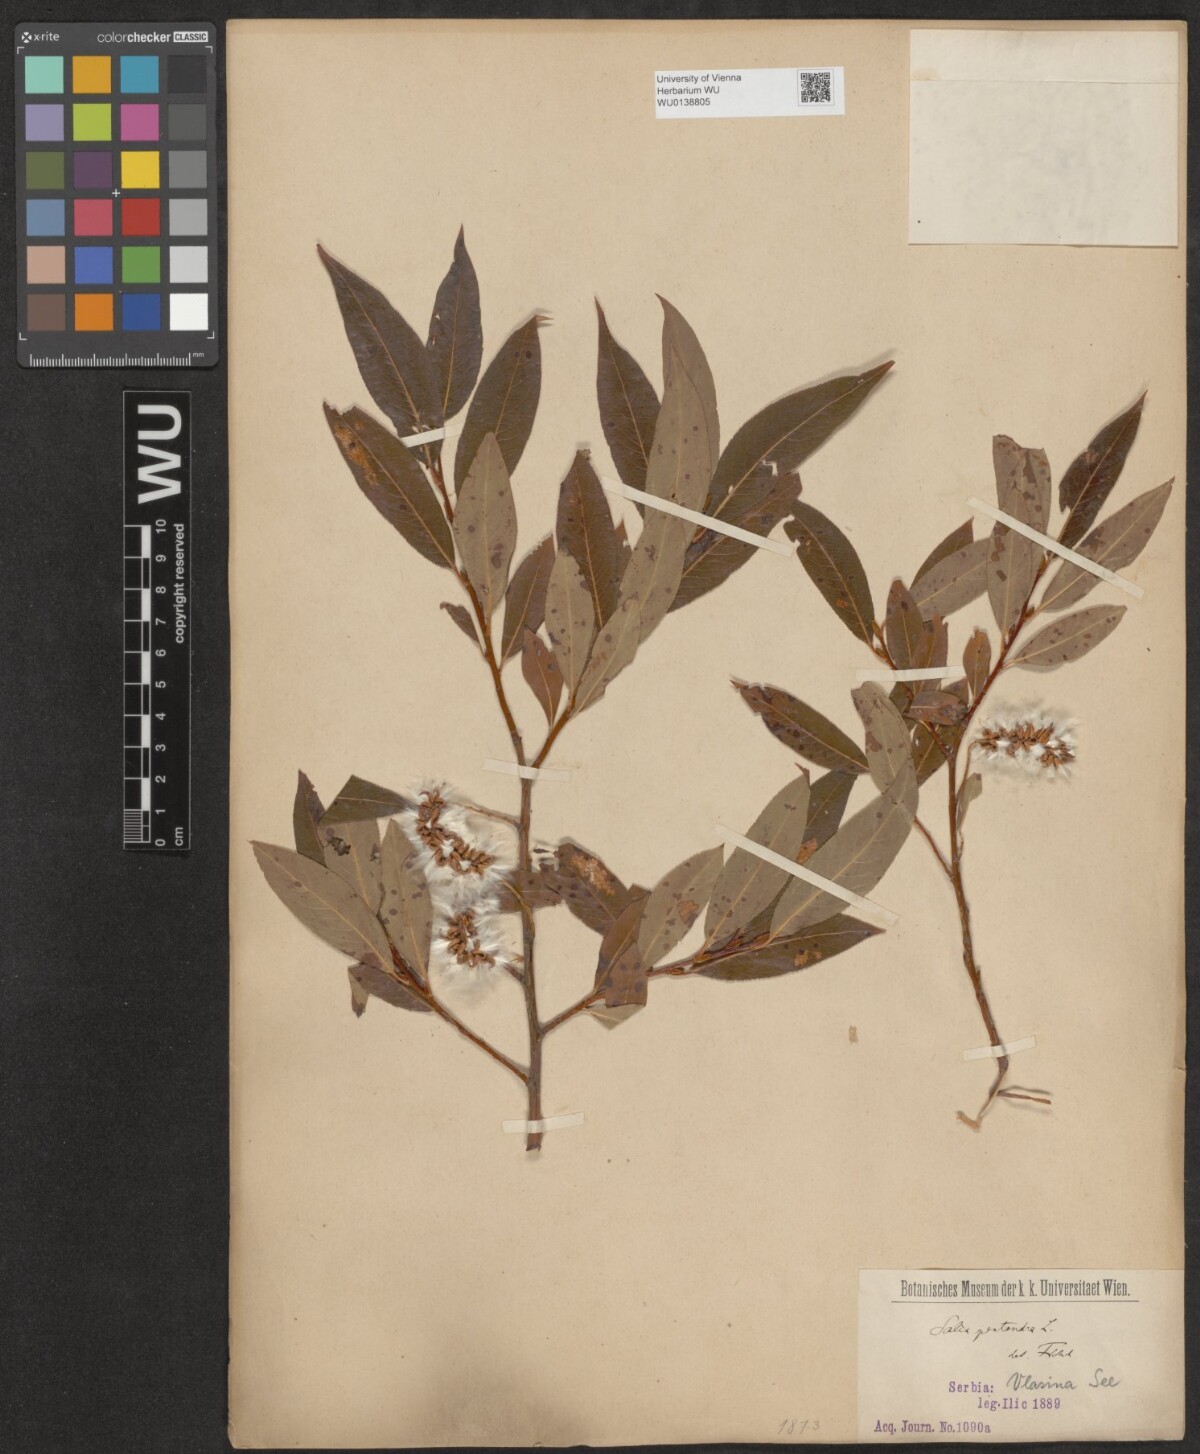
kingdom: Plantae
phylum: Tracheophyta
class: Magnoliopsida
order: Malpighiales
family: Salicaceae
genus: Salix
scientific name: Salix pentandra
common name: Bay willow
